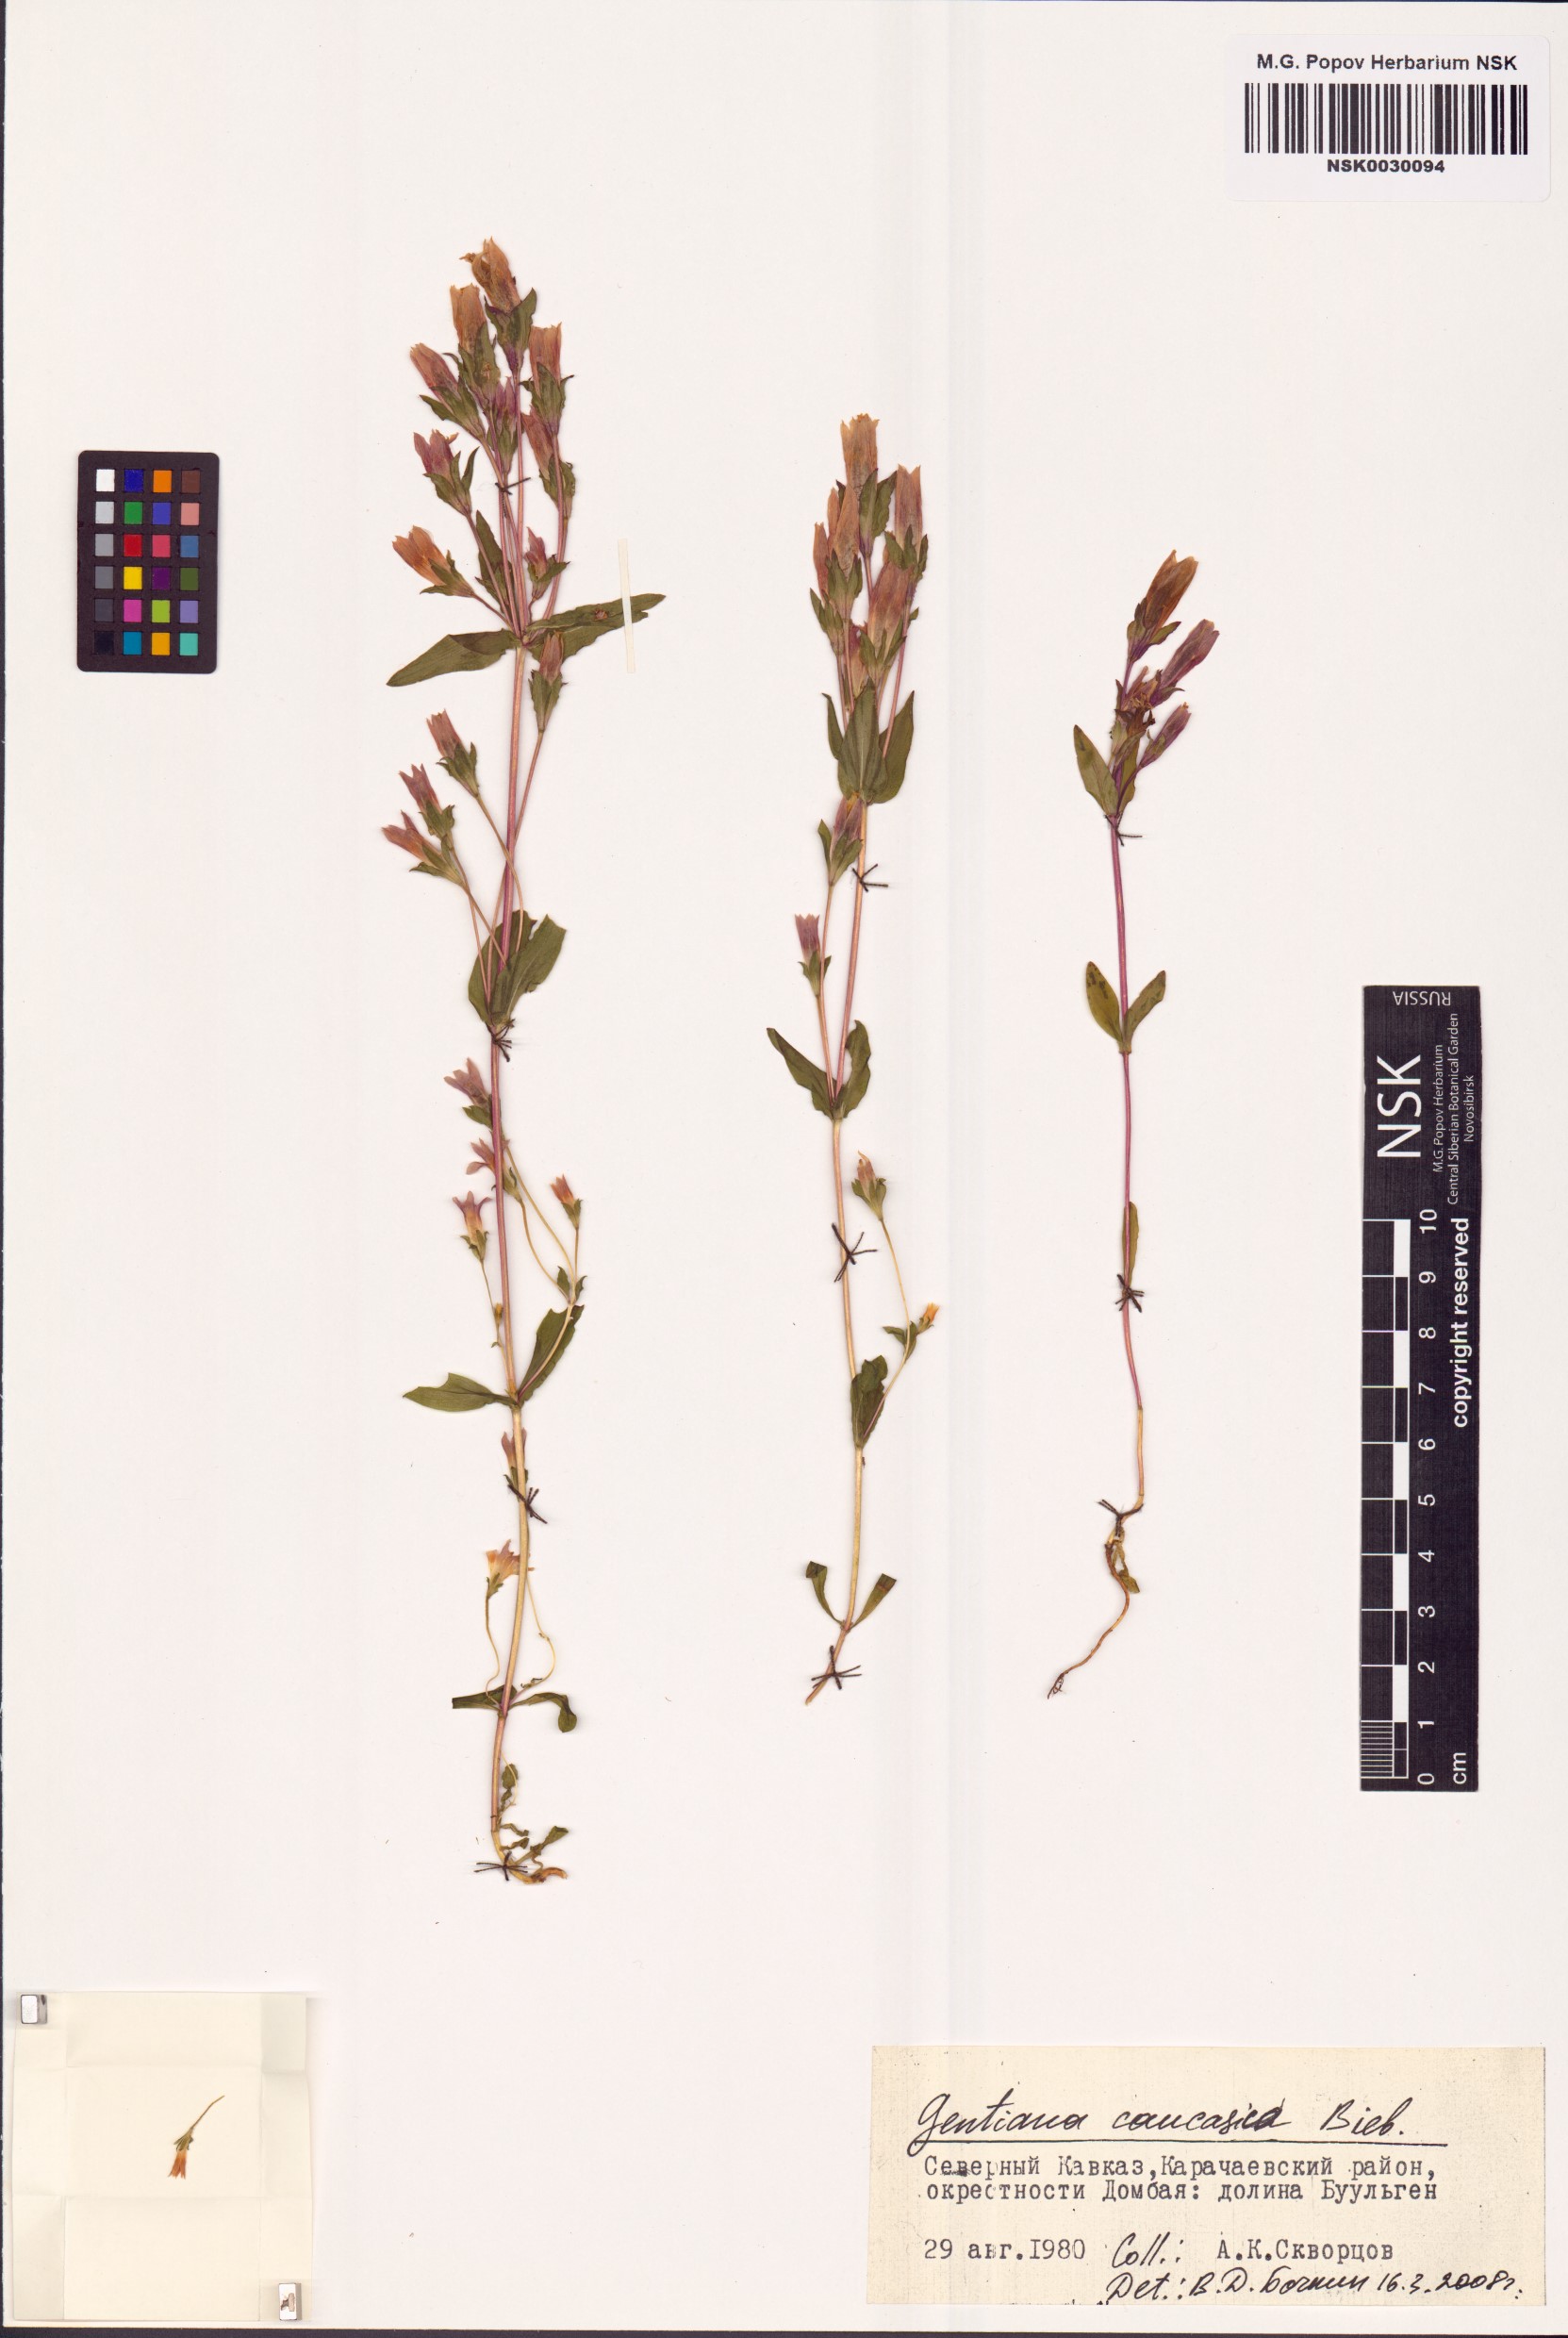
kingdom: Plantae
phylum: Tracheophyta
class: Magnoliopsida
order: Gentianales
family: Gentianaceae
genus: Gentianella
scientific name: Gentianella caucasea
